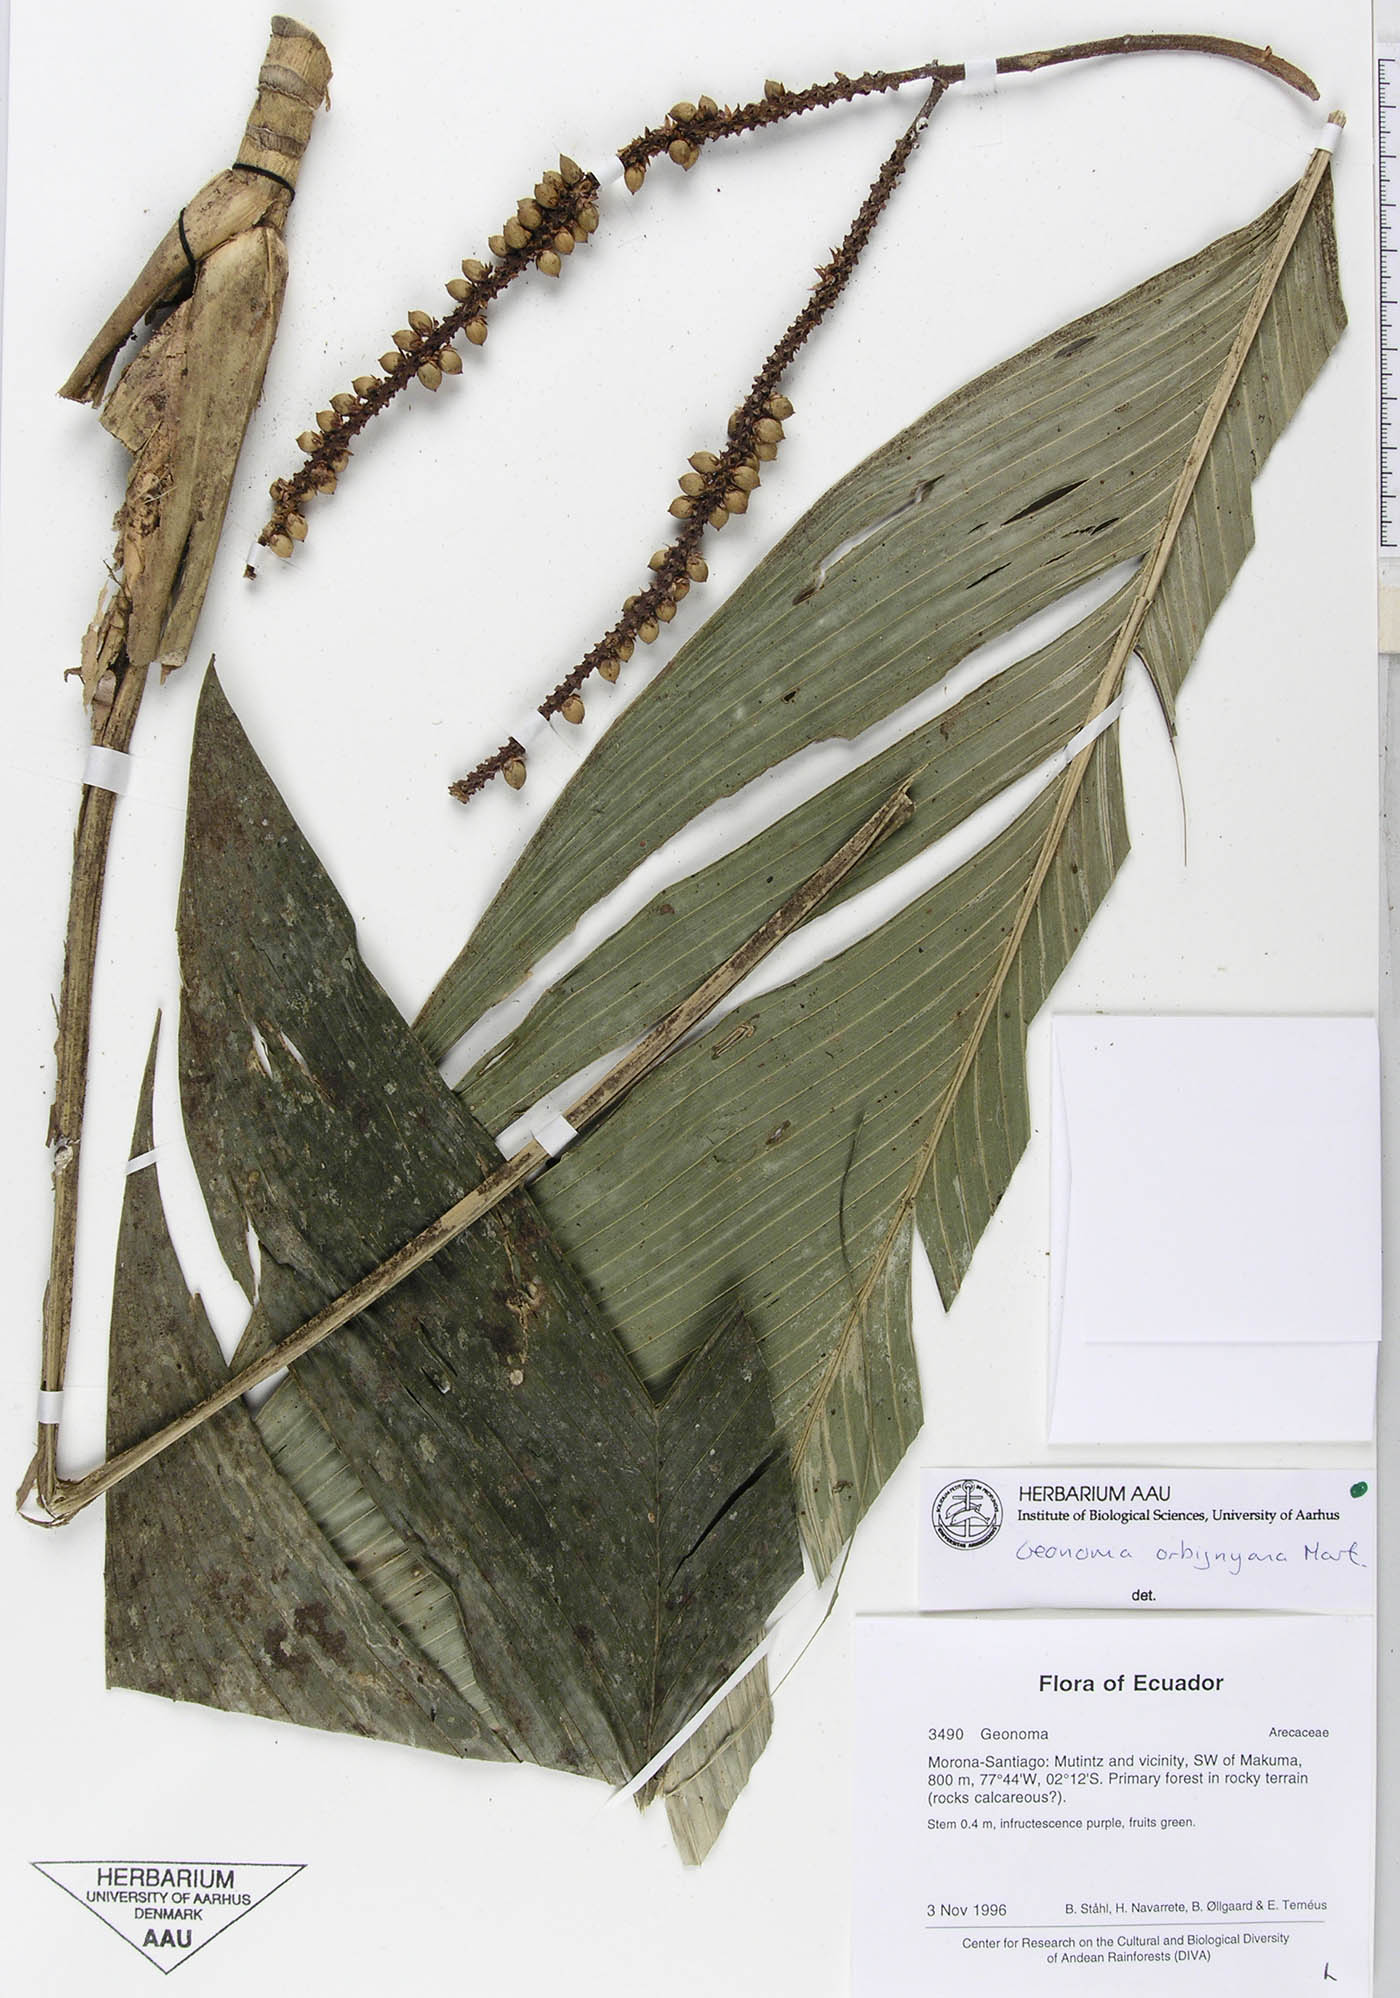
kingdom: Plantae
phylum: Tracheophyta
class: Liliopsida
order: Arecales
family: Arecaceae
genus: Geonoma
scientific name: Geonoma stricta
